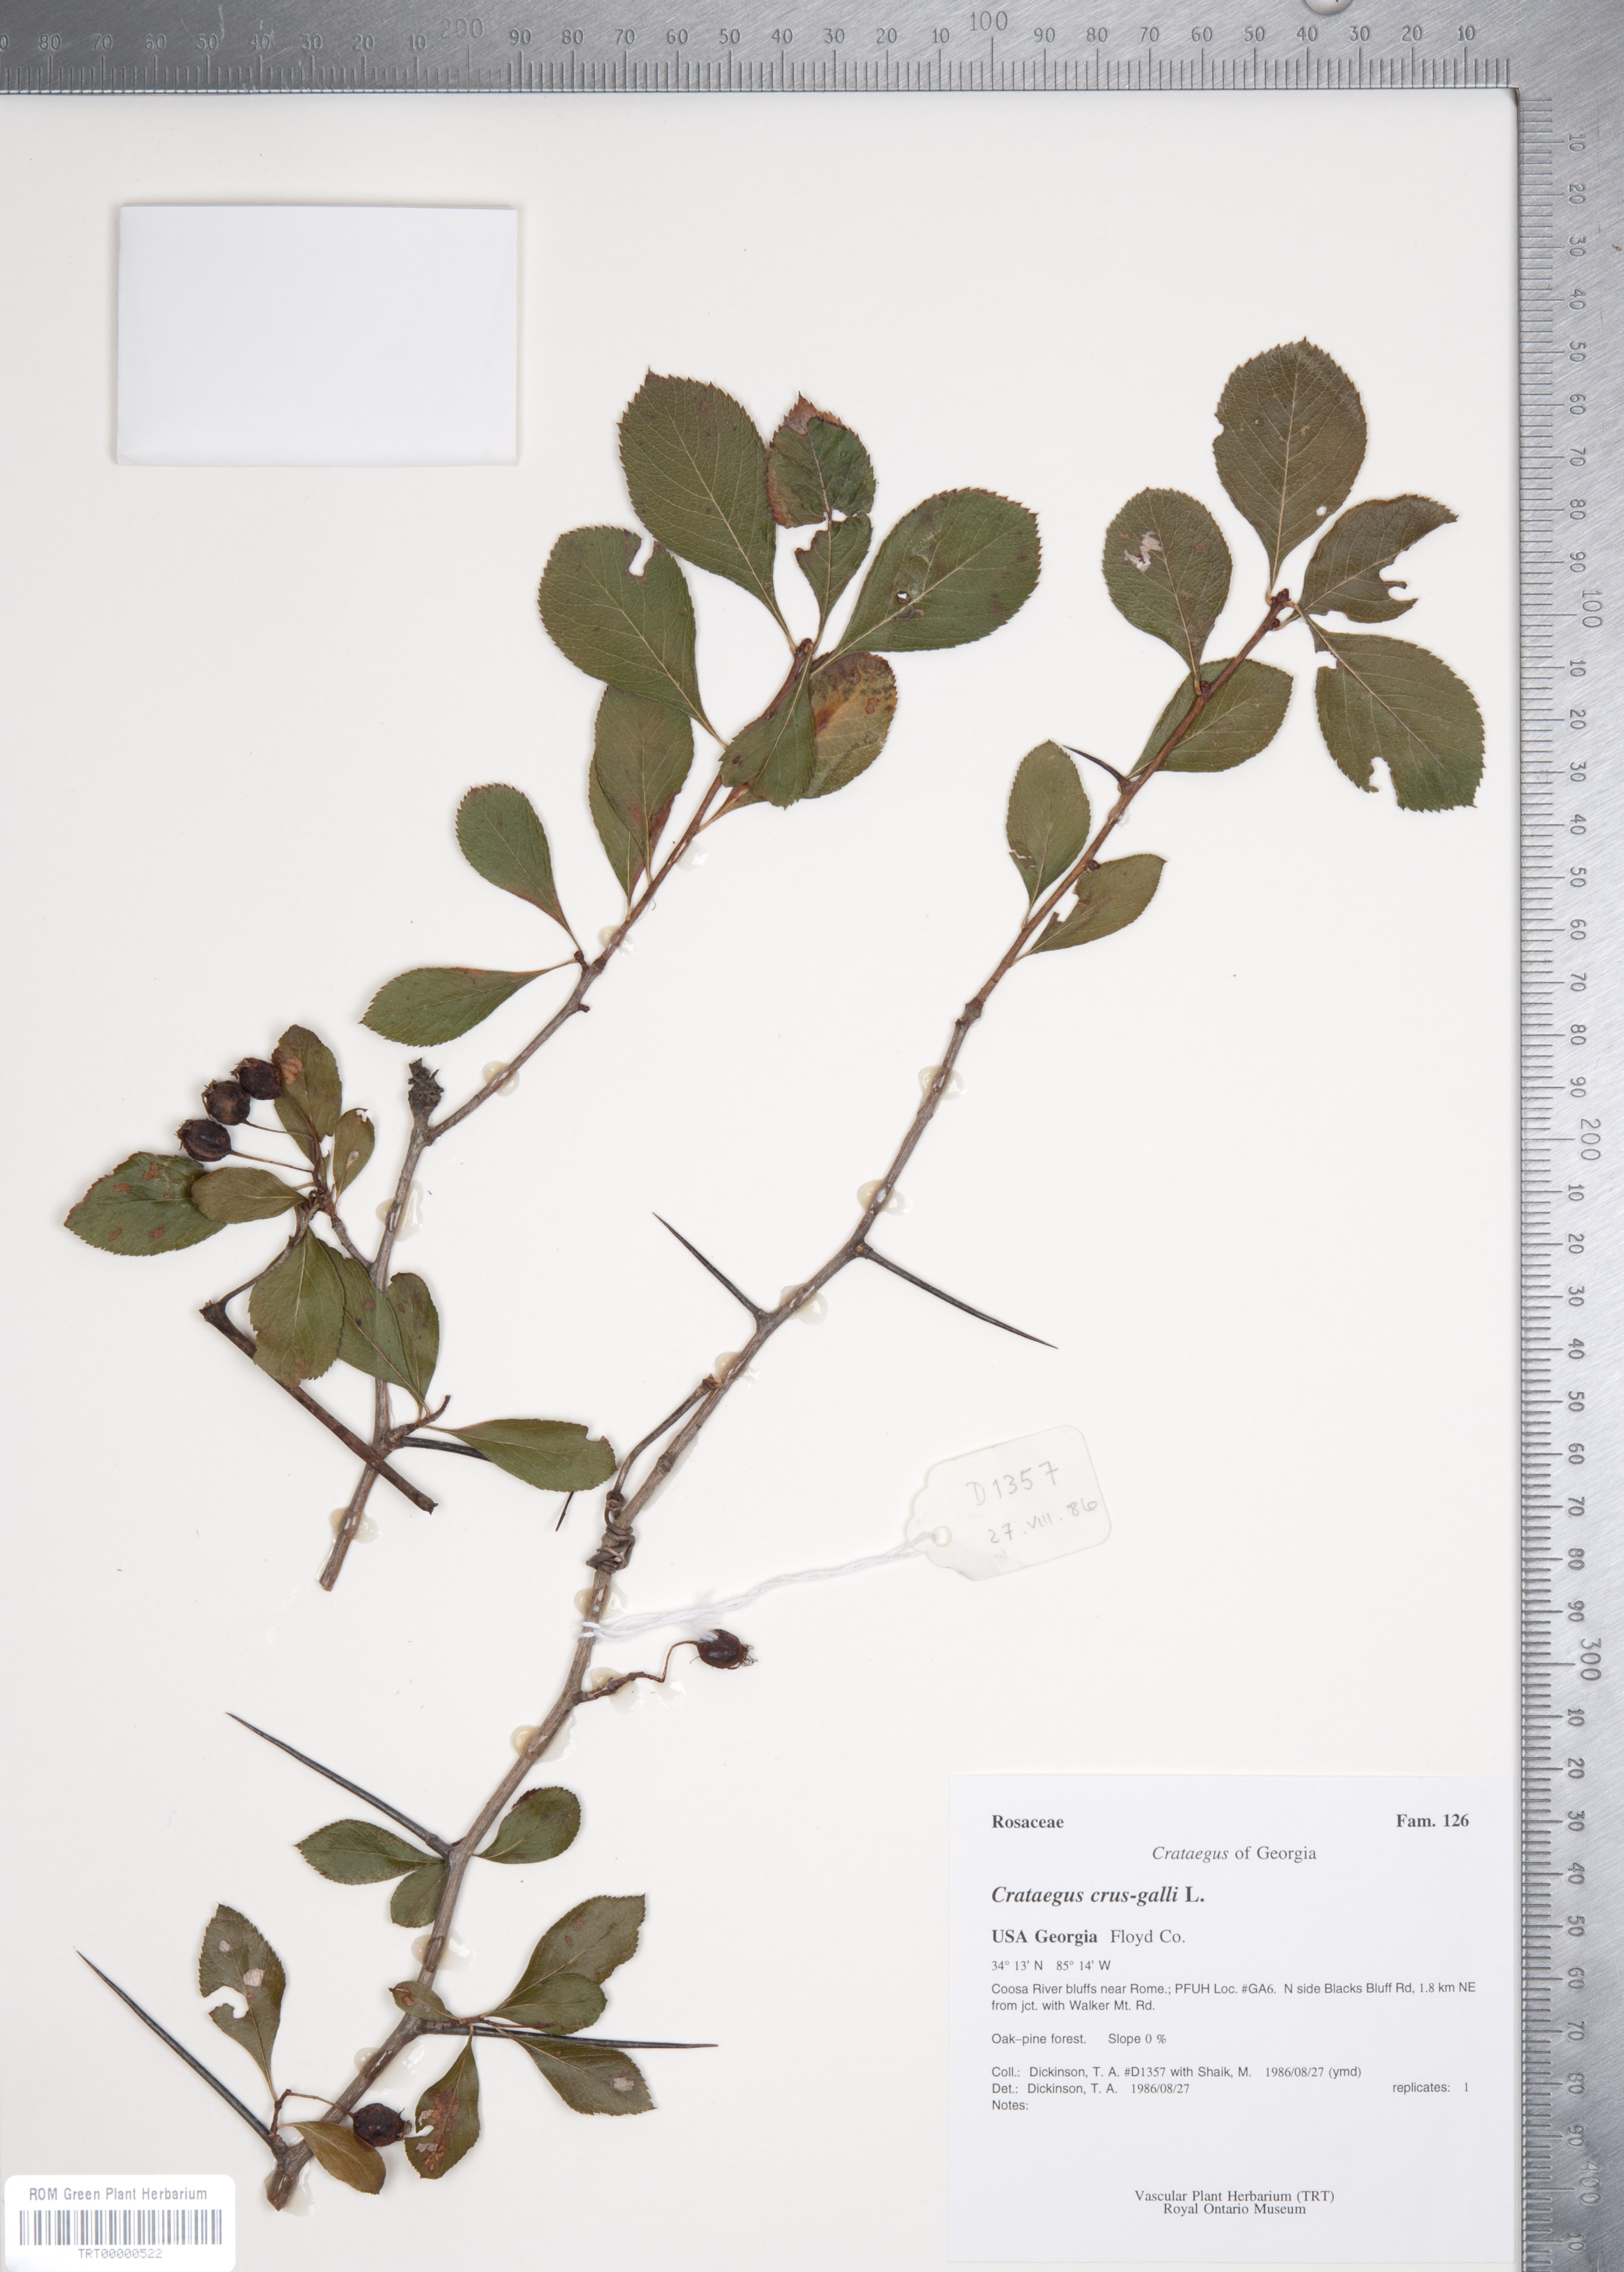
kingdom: Plantae
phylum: Tracheophyta
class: Magnoliopsida
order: Rosales
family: Rosaceae
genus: Crataegus
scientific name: Crataegus crus-galli
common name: Cockspurthorn
